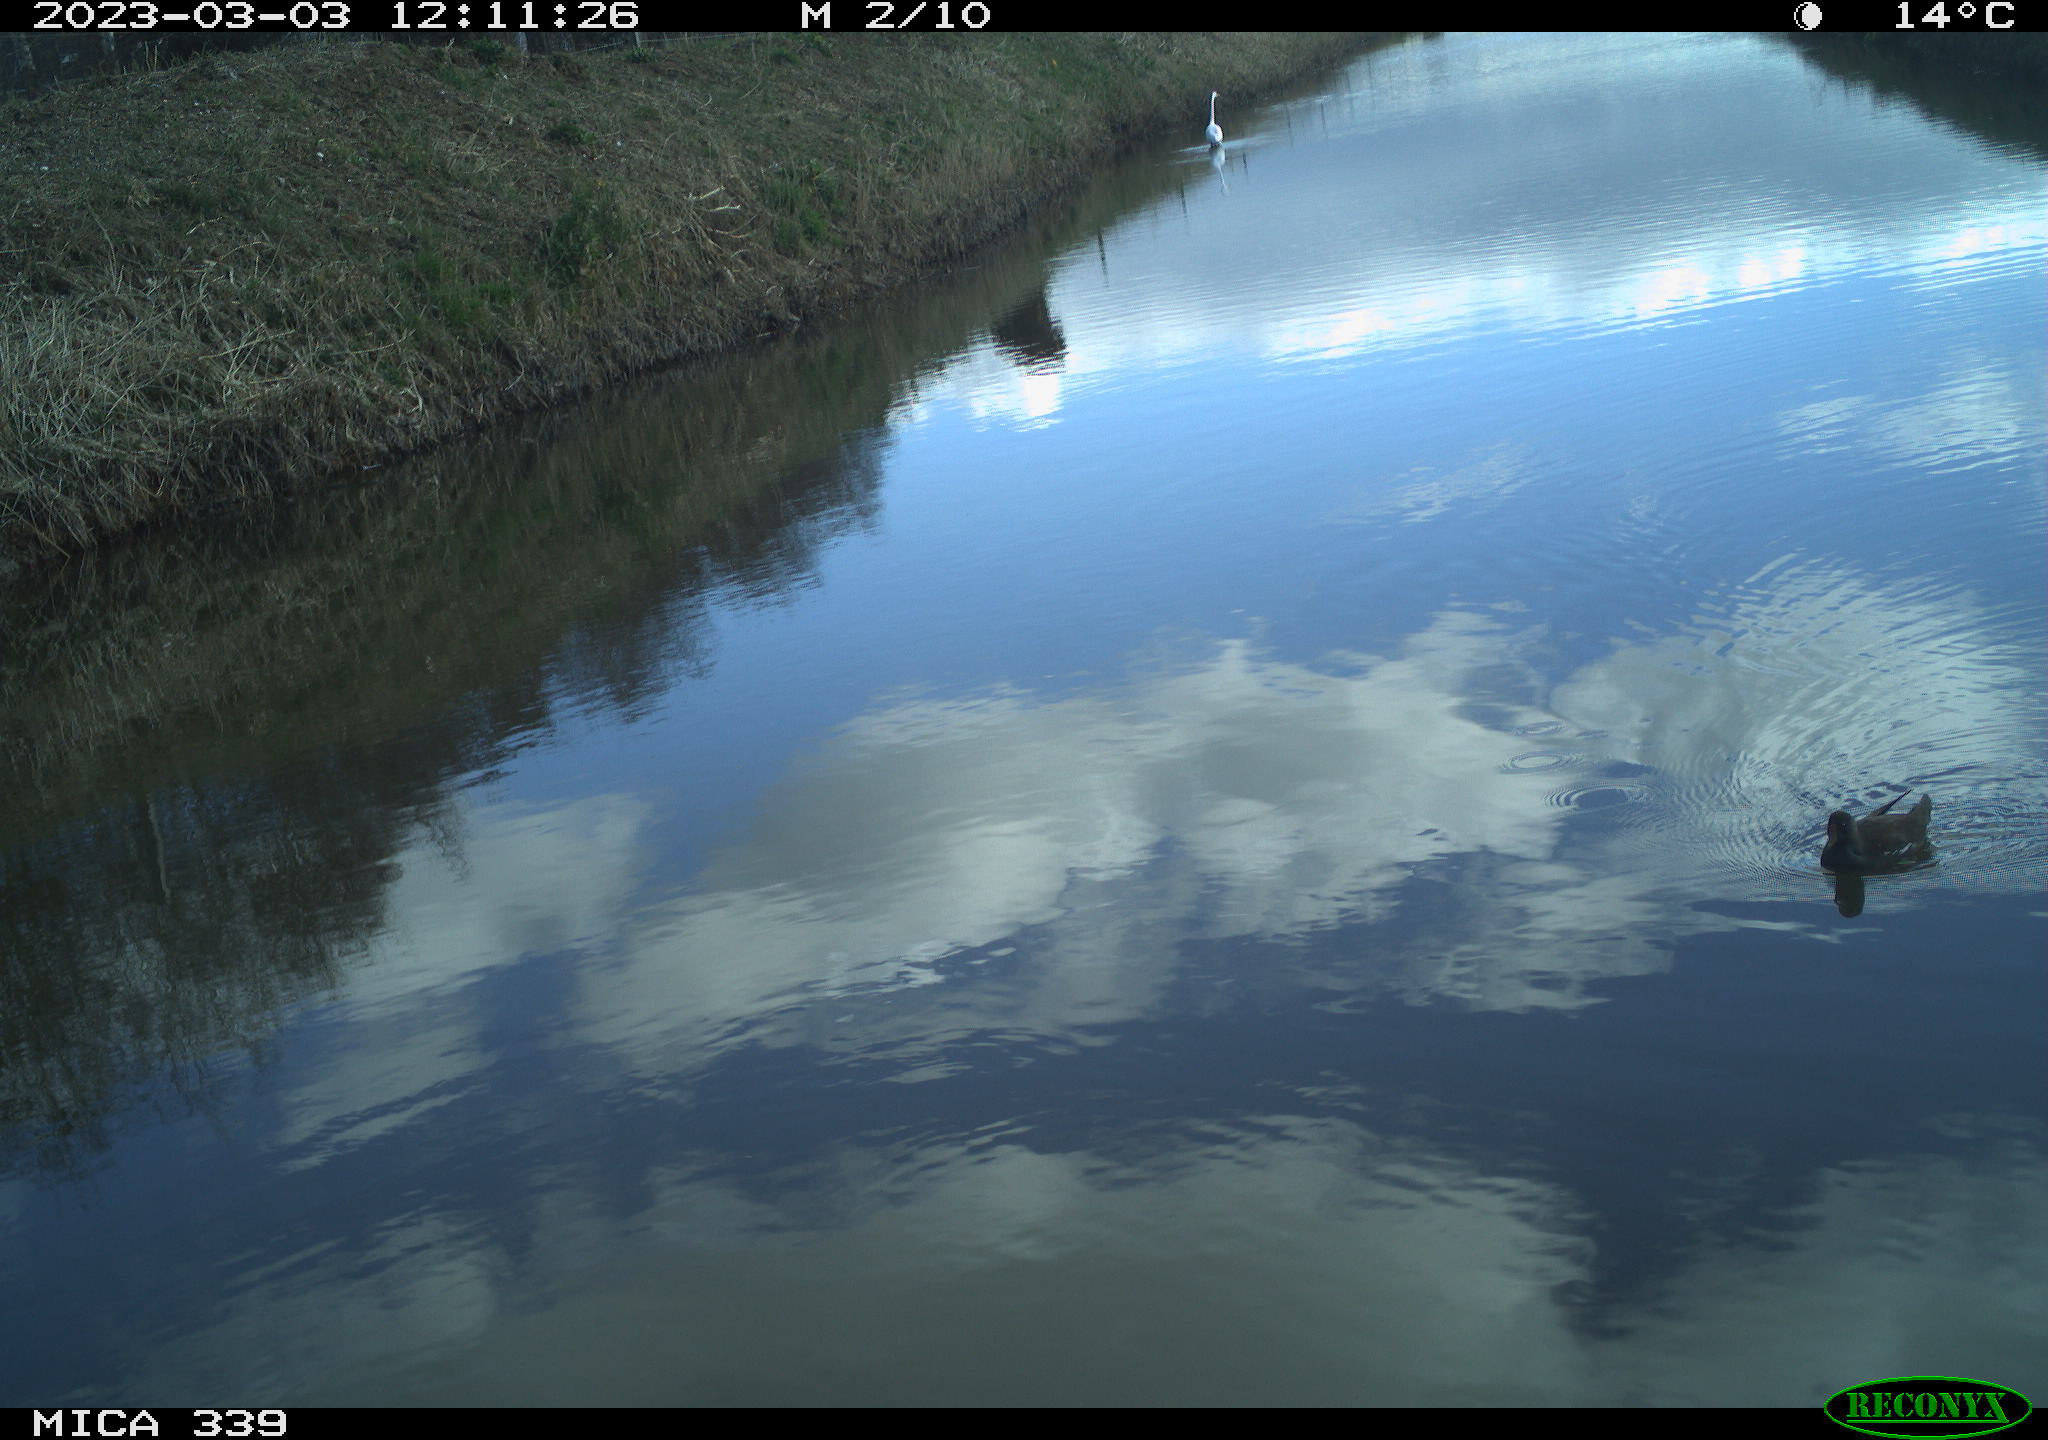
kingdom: Animalia
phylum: Chordata
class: Aves
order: Gruiformes
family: Rallidae
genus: Gallinula
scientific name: Gallinula chloropus
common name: Common moorhen
